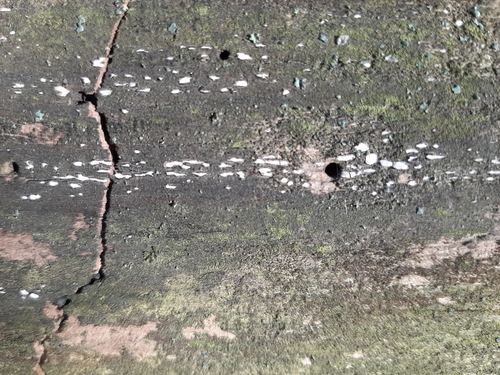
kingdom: Fungi
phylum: Ascomycota
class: Leotiomycetes
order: Chaetomellales
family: Marthamycetaceae
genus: Propolis
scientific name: Propolis farinosa
